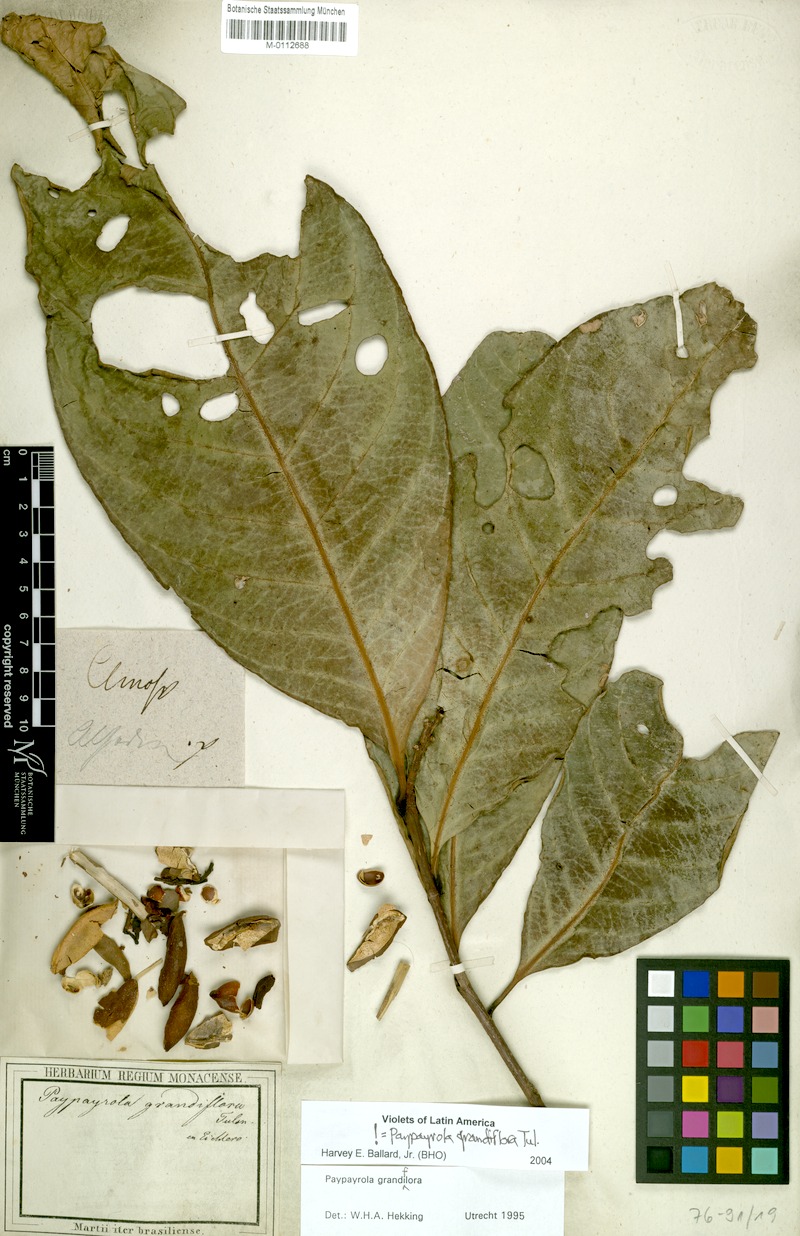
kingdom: Plantae
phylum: Tracheophyta
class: Magnoliopsida
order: Malpighiales
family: Violaceae
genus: Paypayrola
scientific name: Paypayrola grandiflora
